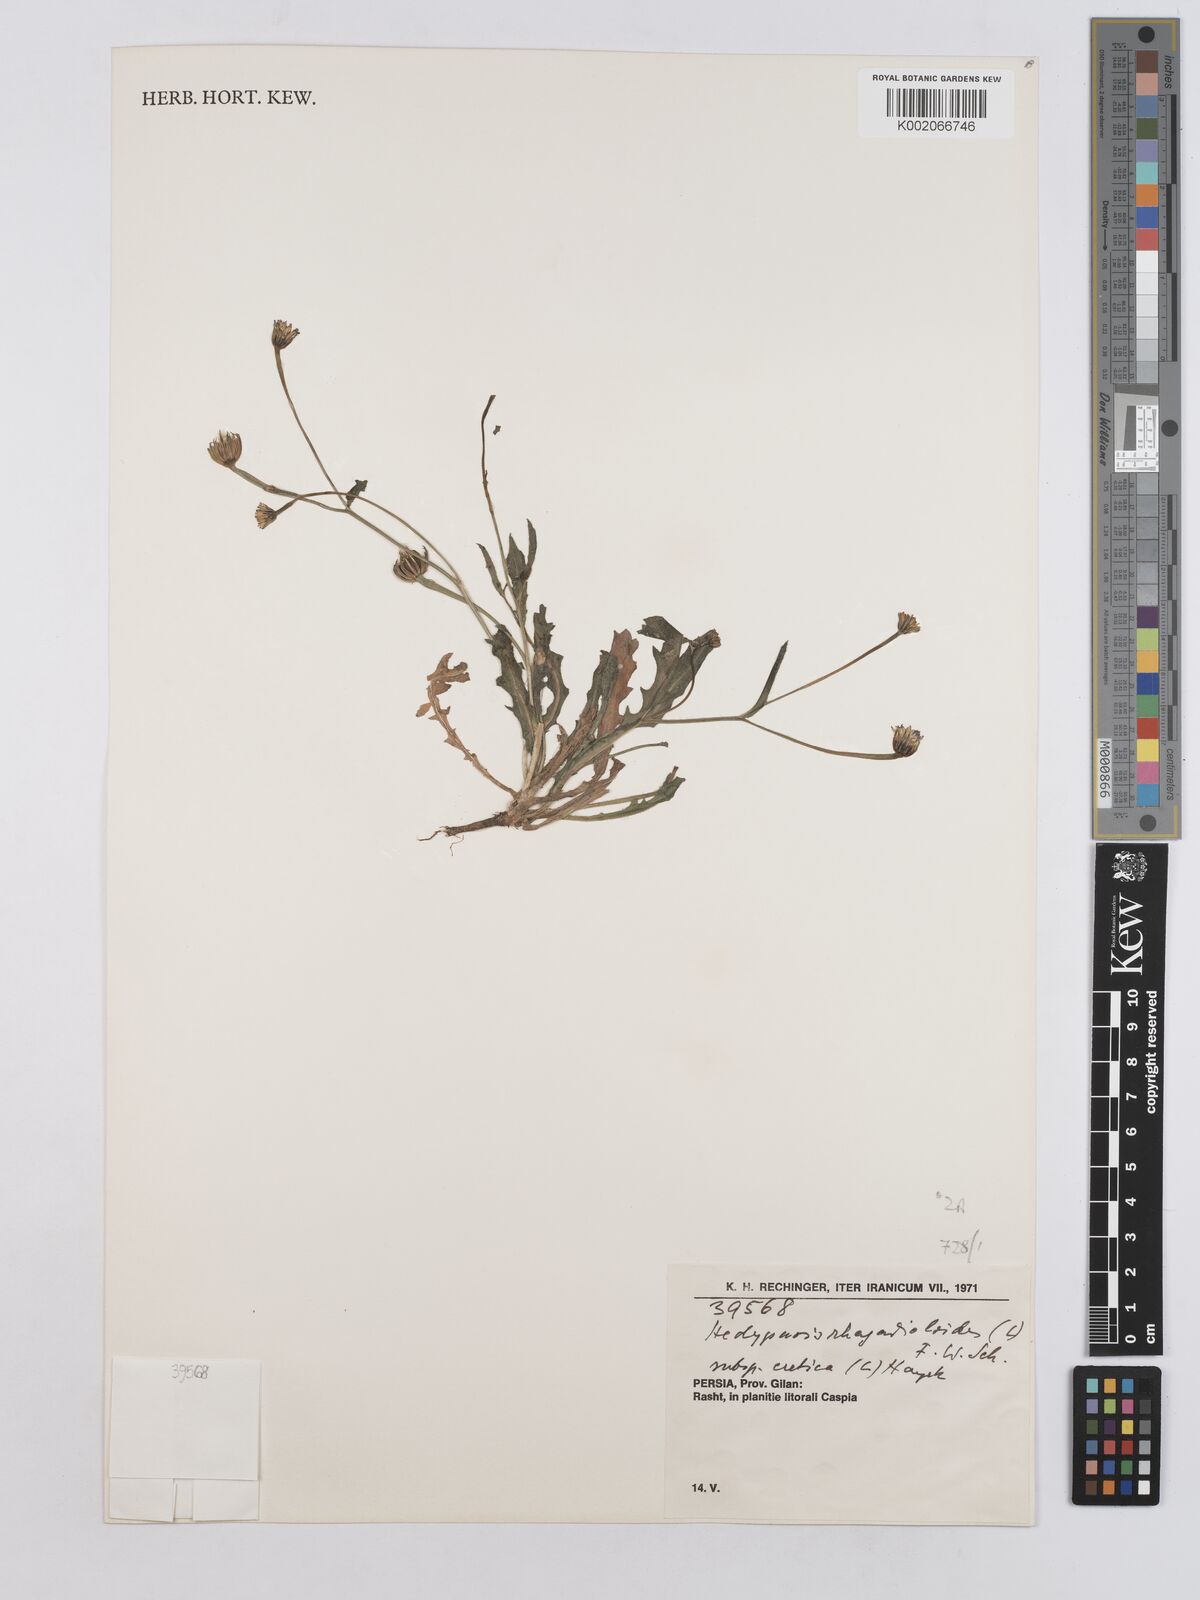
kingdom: Plantae
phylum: Tracheophyta
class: Magnoliopsida
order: Asterales
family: Asteraceae
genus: Hedypnois
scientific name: Hedypnois cretica
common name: Scaly hawkbit
